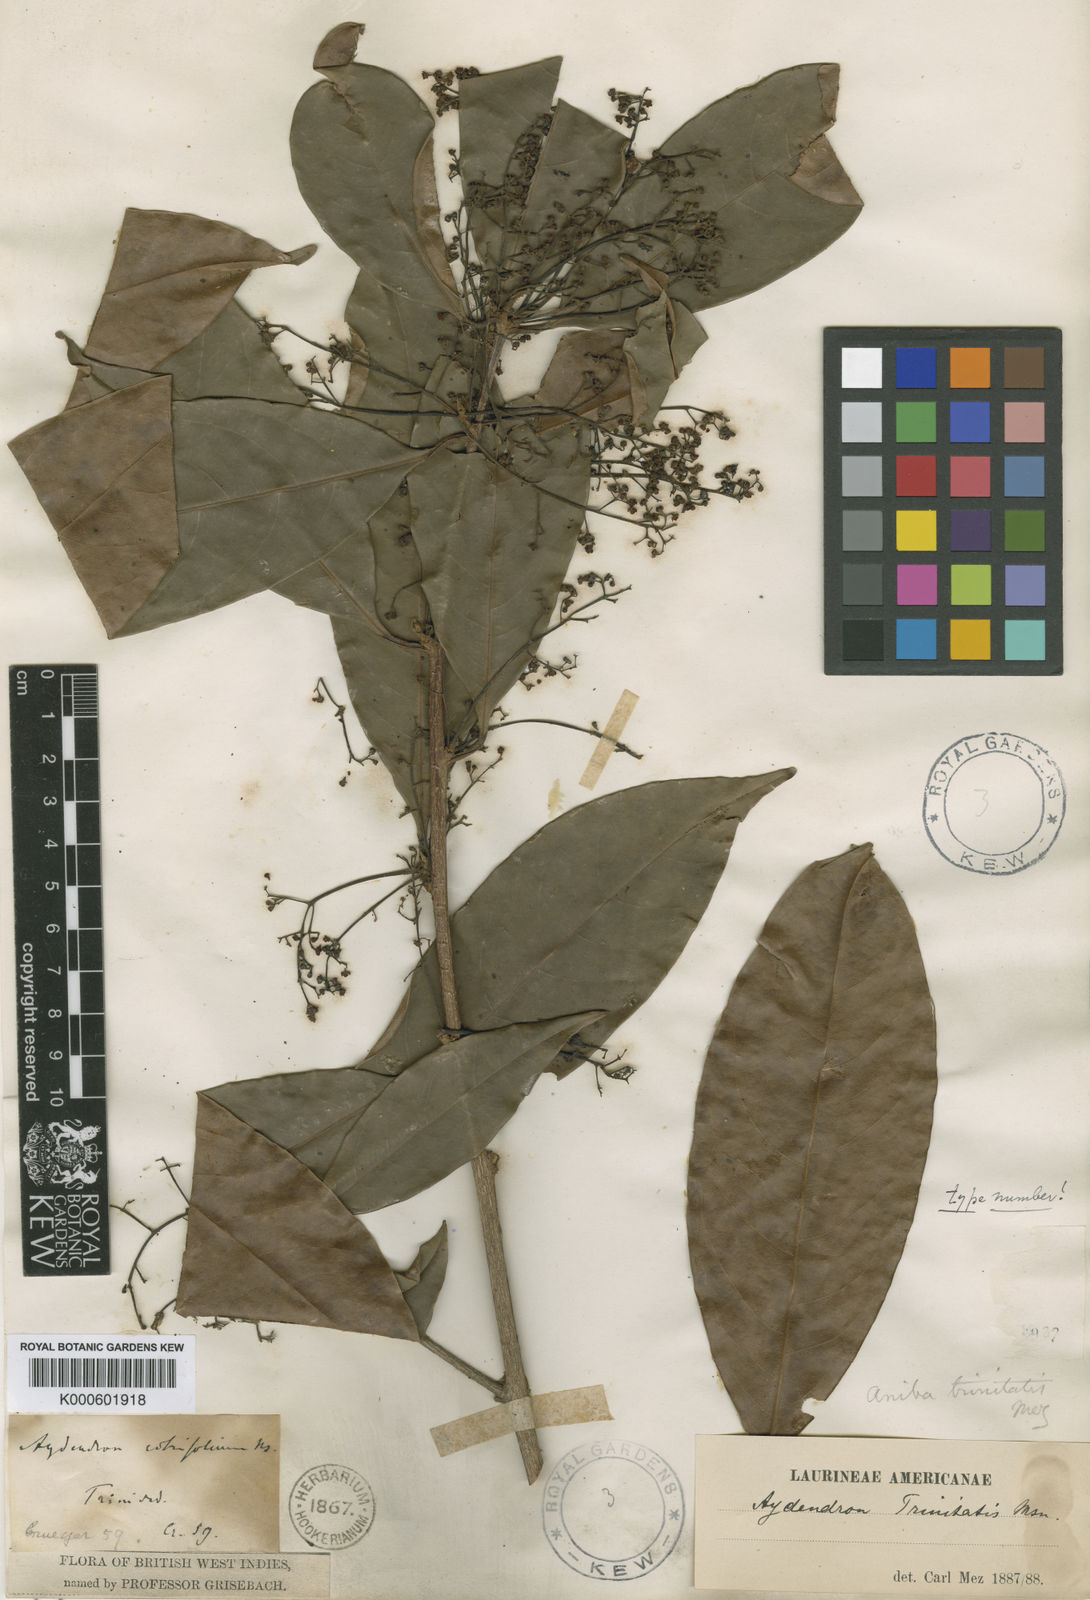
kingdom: Plantae
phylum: Tracheophyta
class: Magnoliopsida
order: Laurales
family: Lauraceae
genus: Aniba
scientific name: Aniba citrifolia
